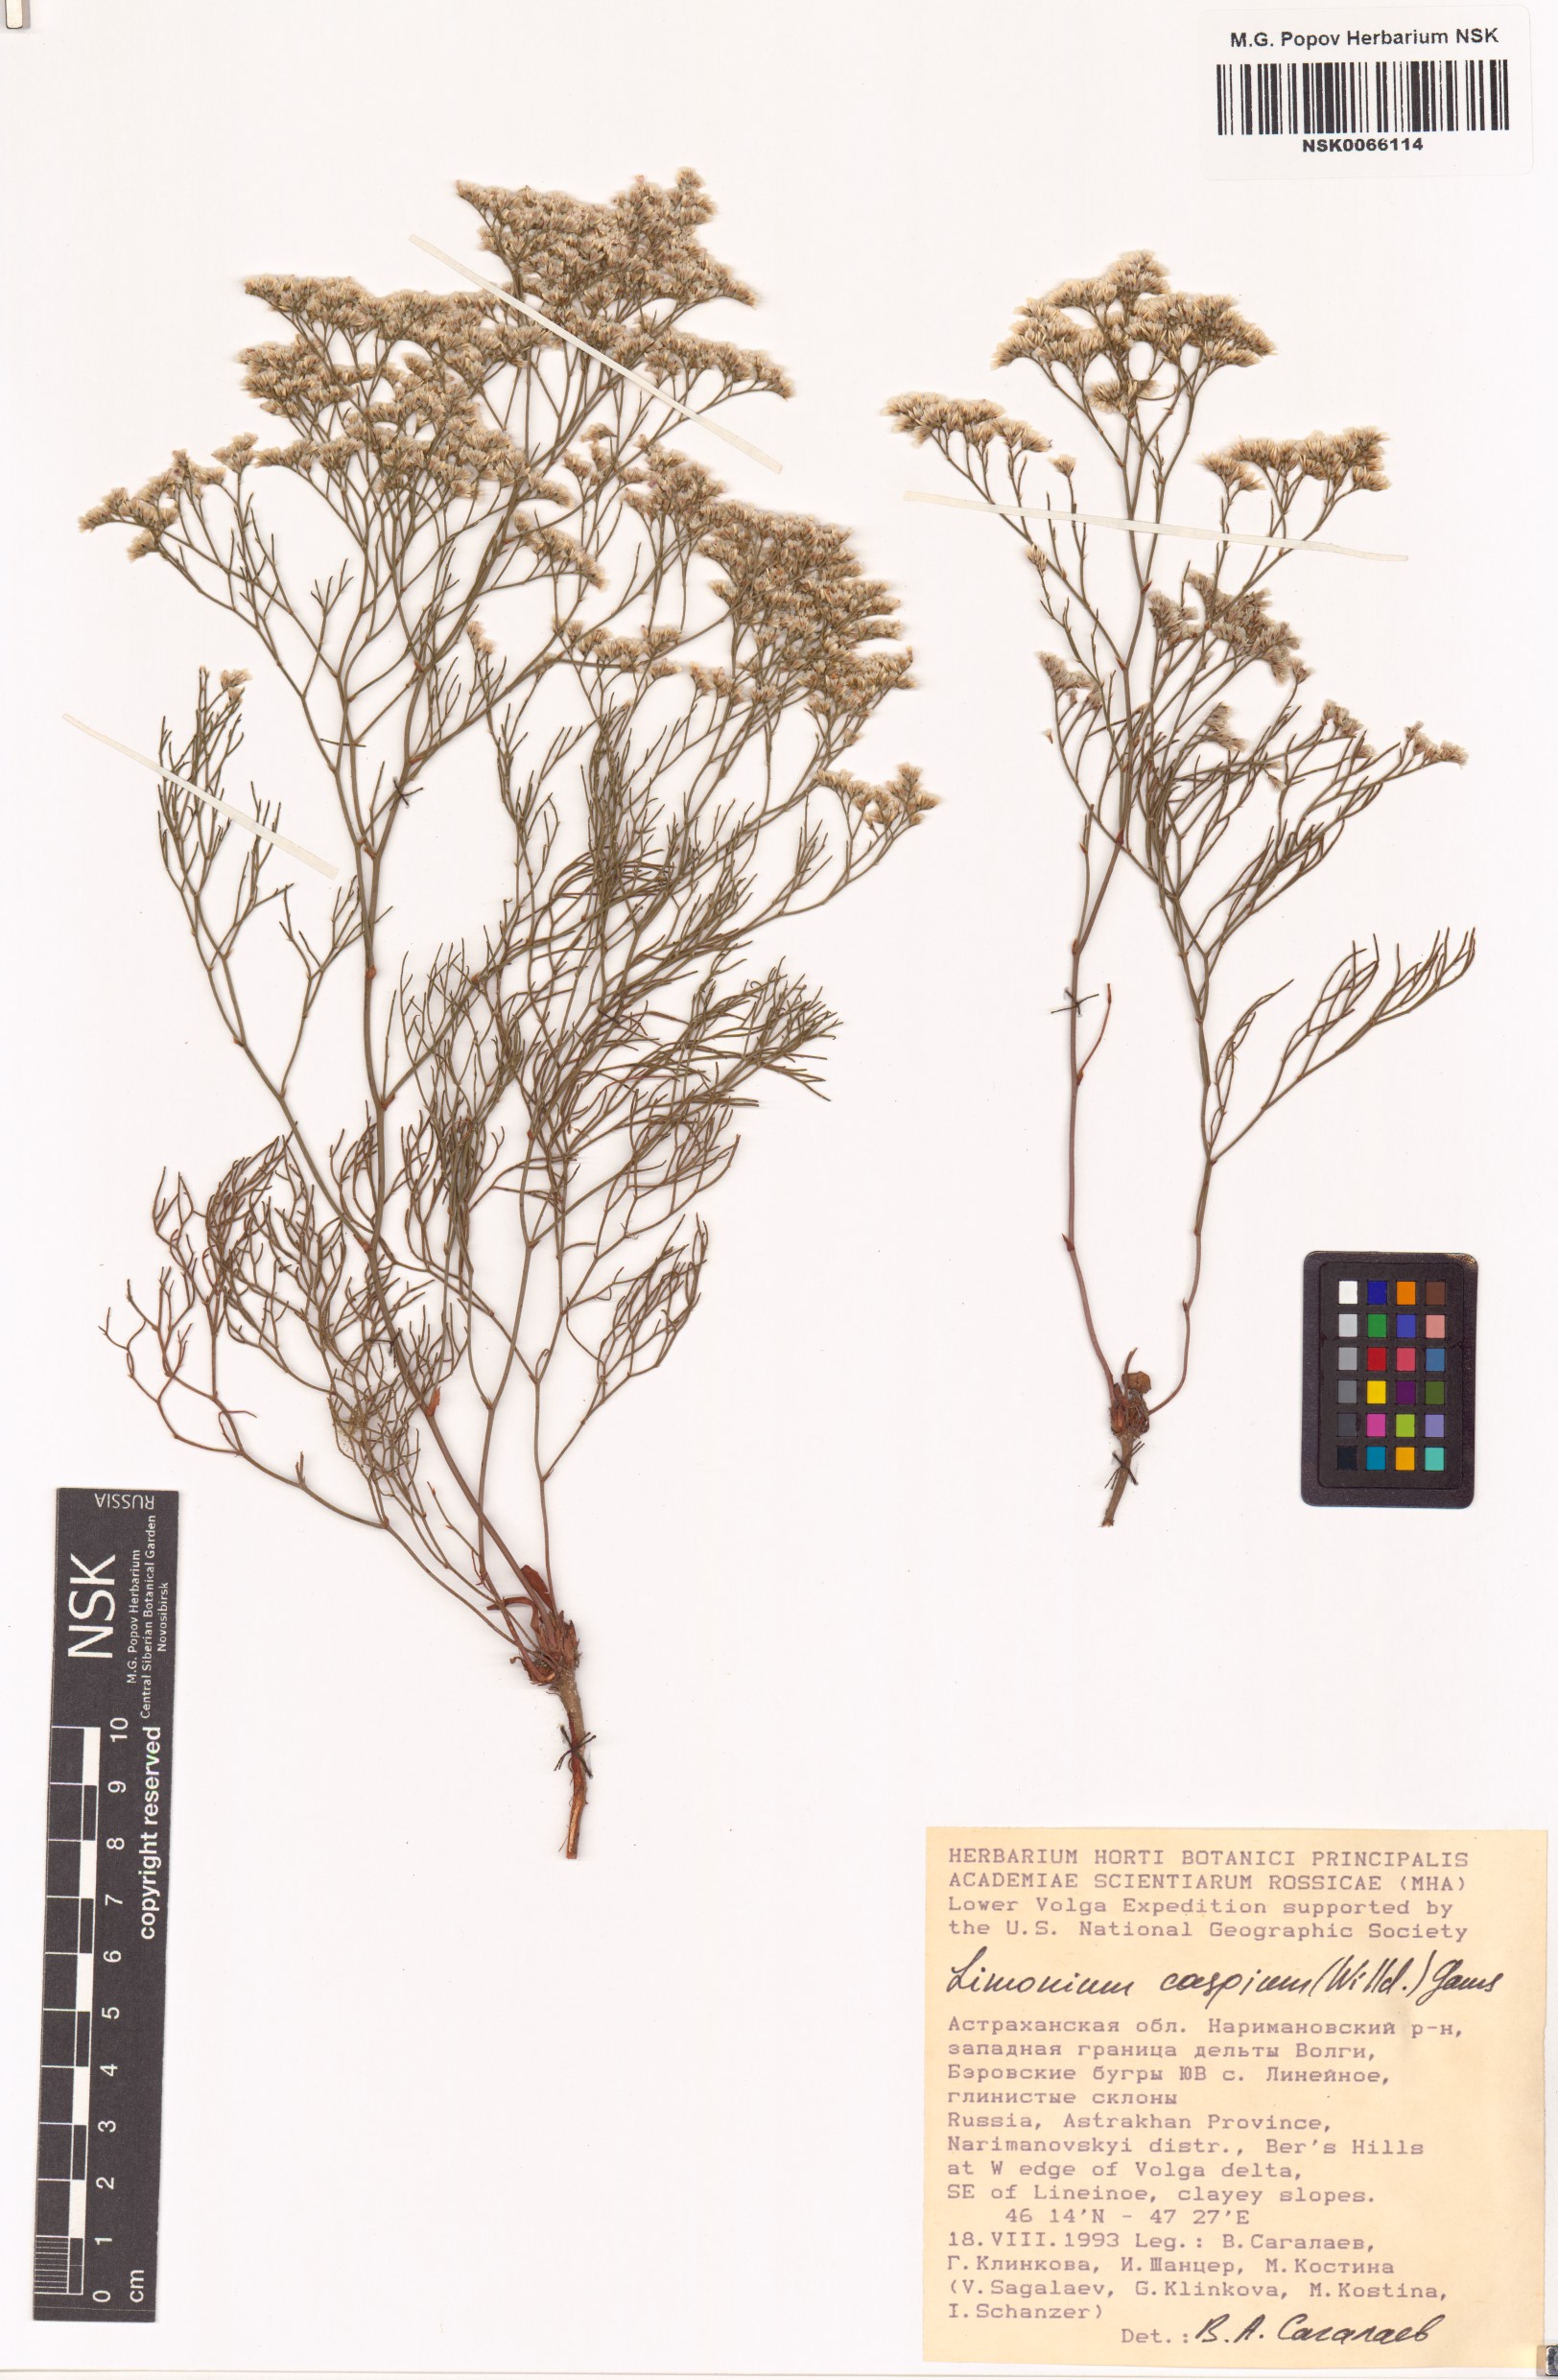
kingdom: Plantae
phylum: Tracheophyta
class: Magnoliopsida
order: Caryophyllales
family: Plumbaginaceae
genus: Limonium
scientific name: Limonium bellidifolium
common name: Matted sea-lavender
